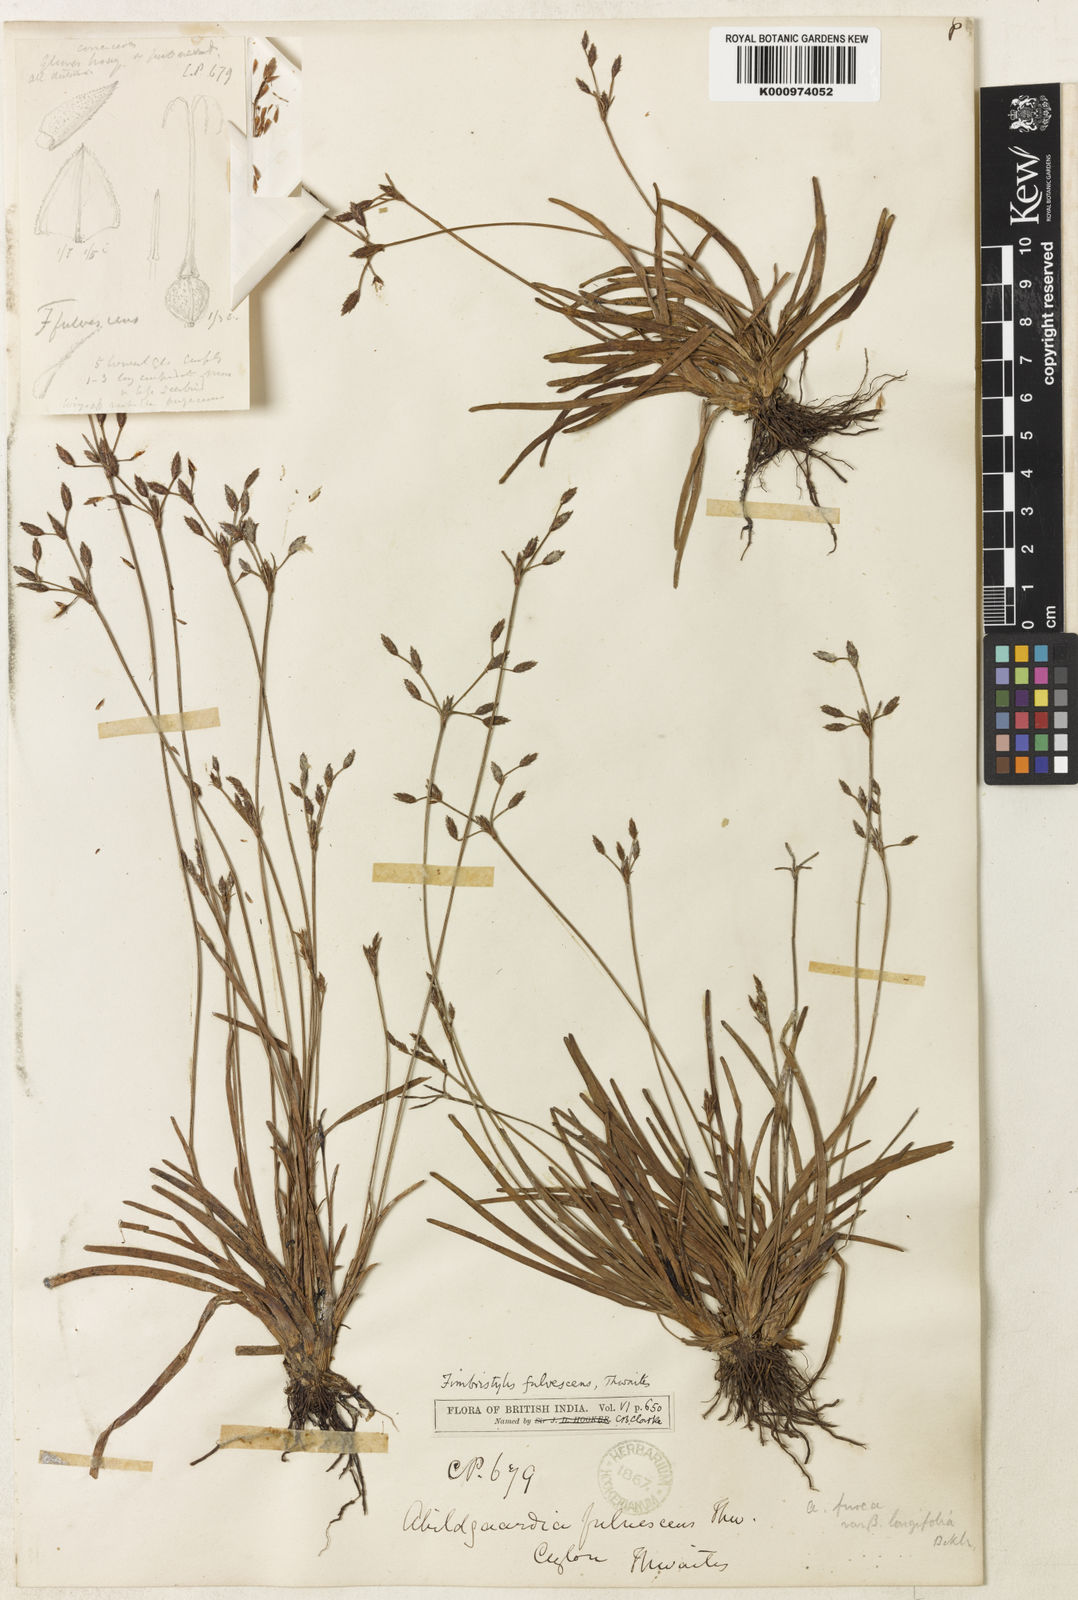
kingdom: Plantae
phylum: Tracheophyta
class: Liliopsida
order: Poales
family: Cyperaceae
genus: Fimbristylis
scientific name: Fimbristylis fulvescens
